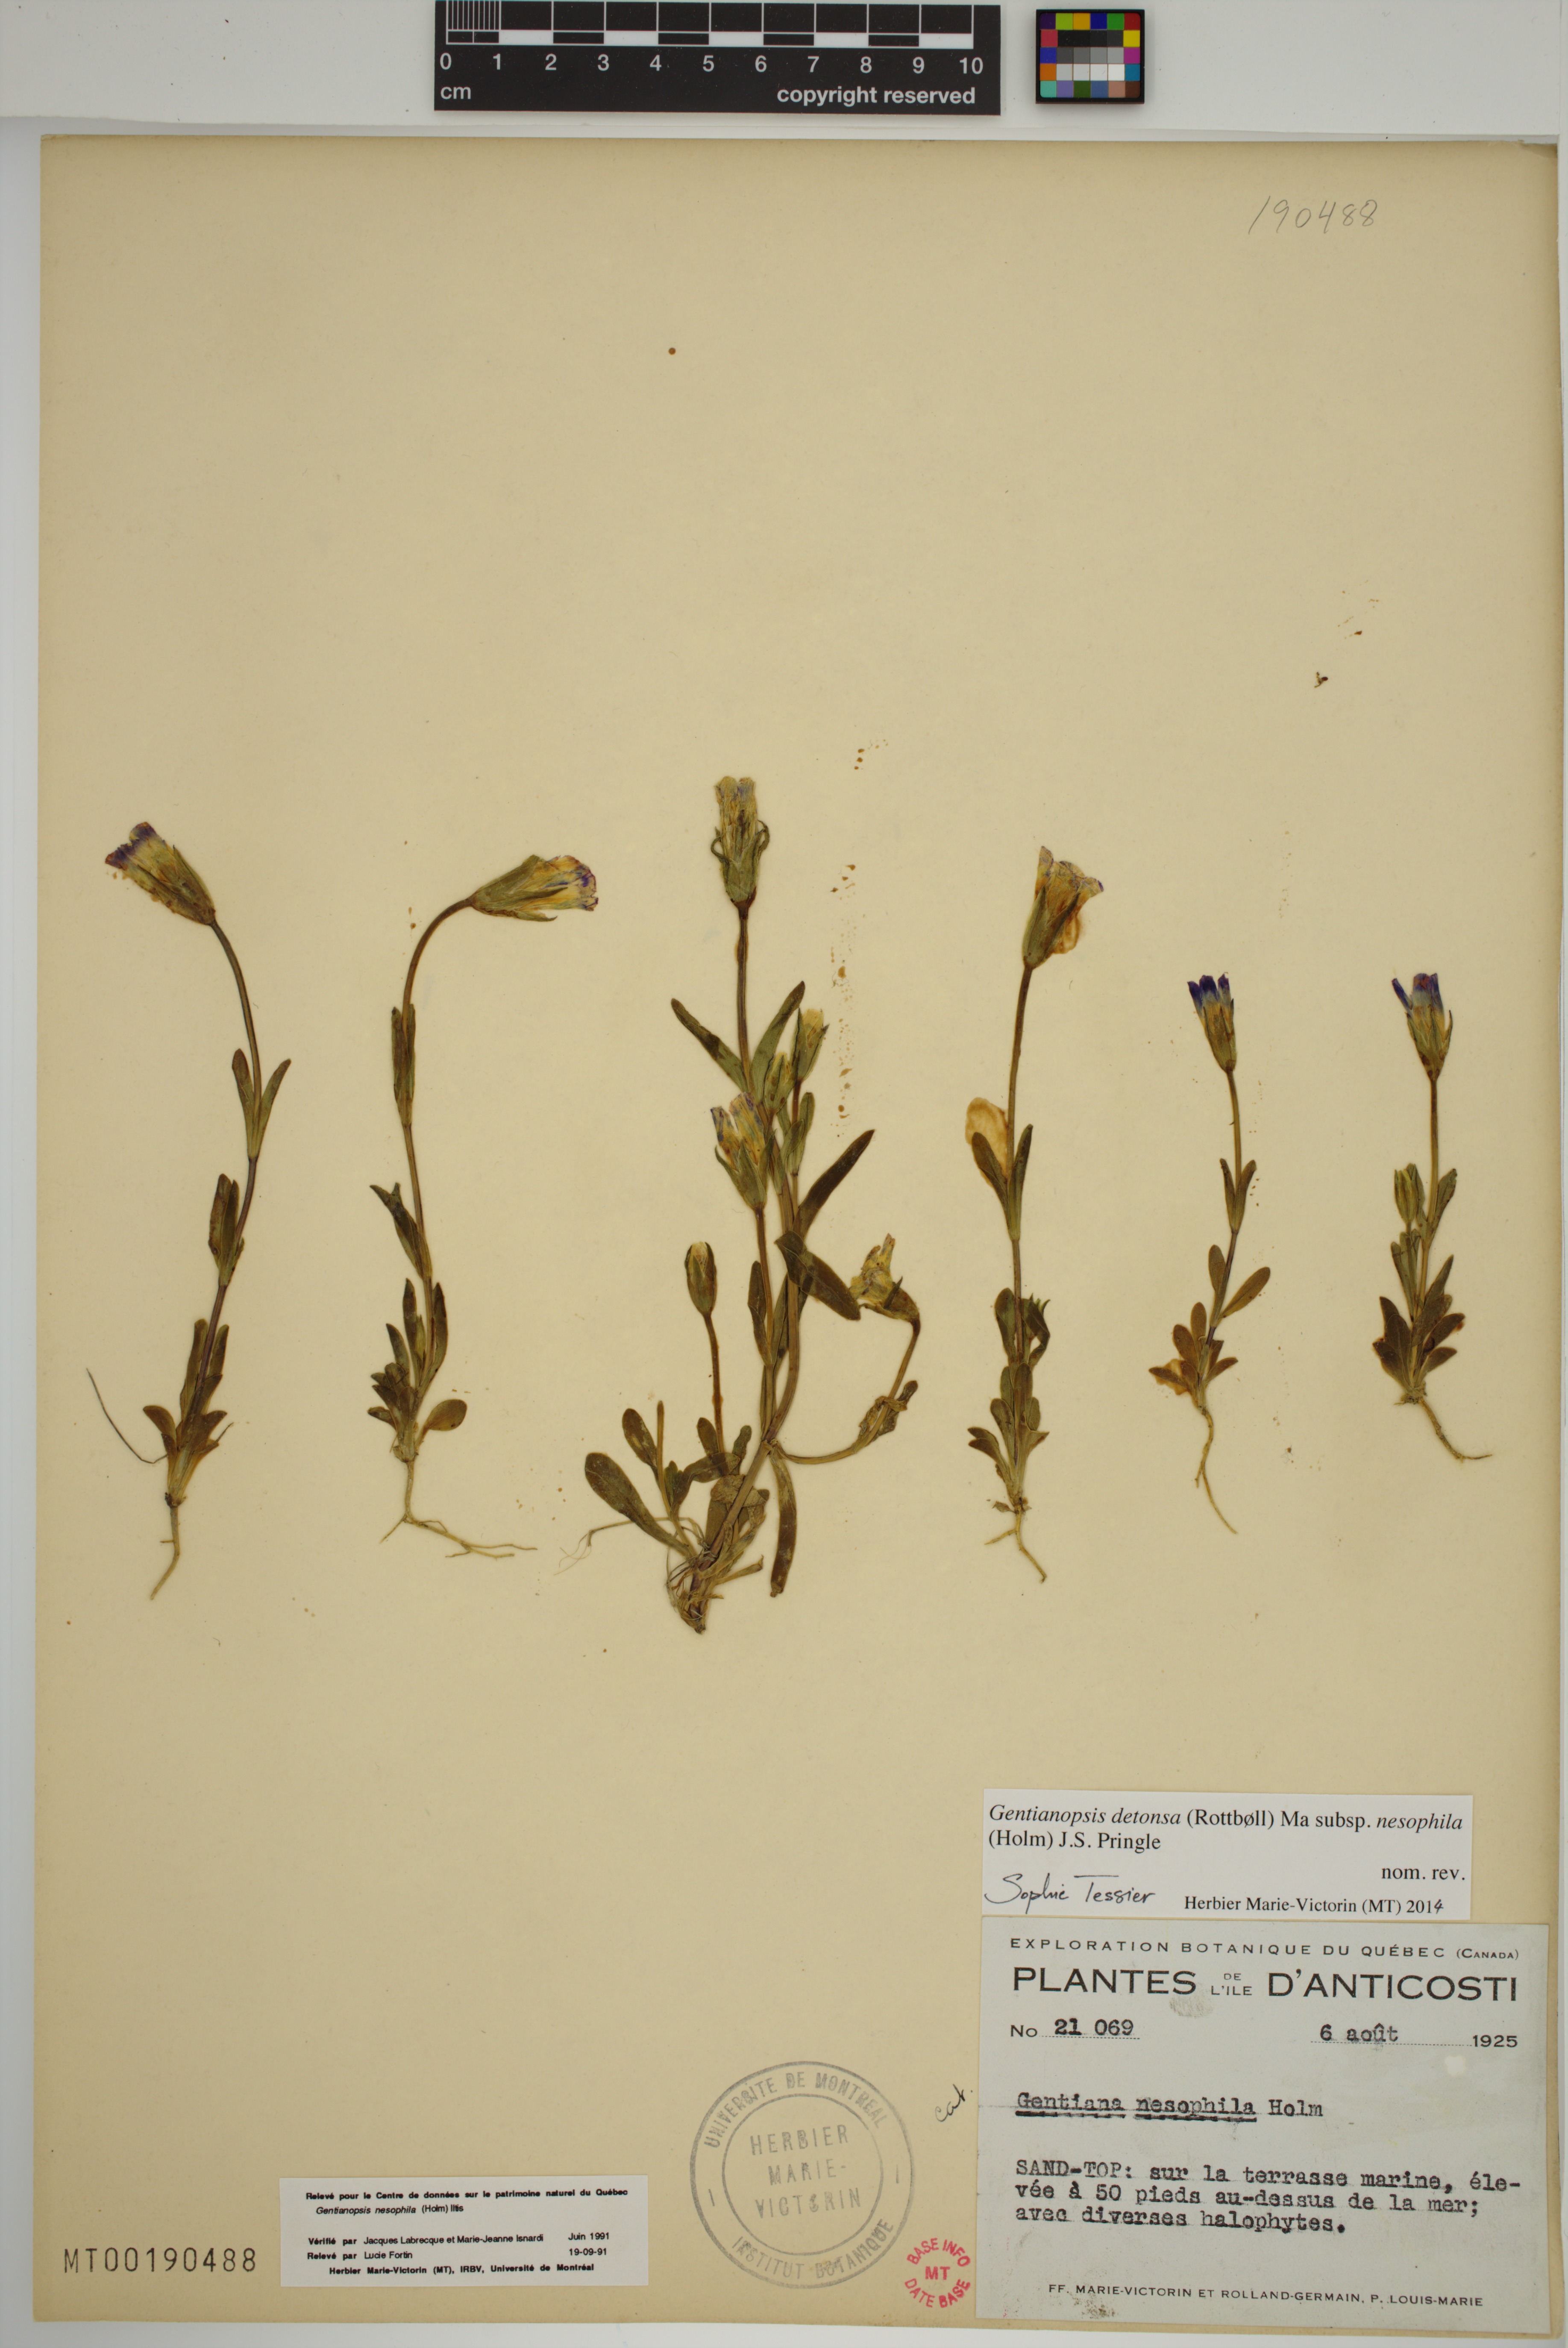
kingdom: Plantae
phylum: Tracheophyta
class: Magnoliopsida
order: Gentianales
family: Gentianaceae
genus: Gentianopsis
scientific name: Gentianopsis nesophila
